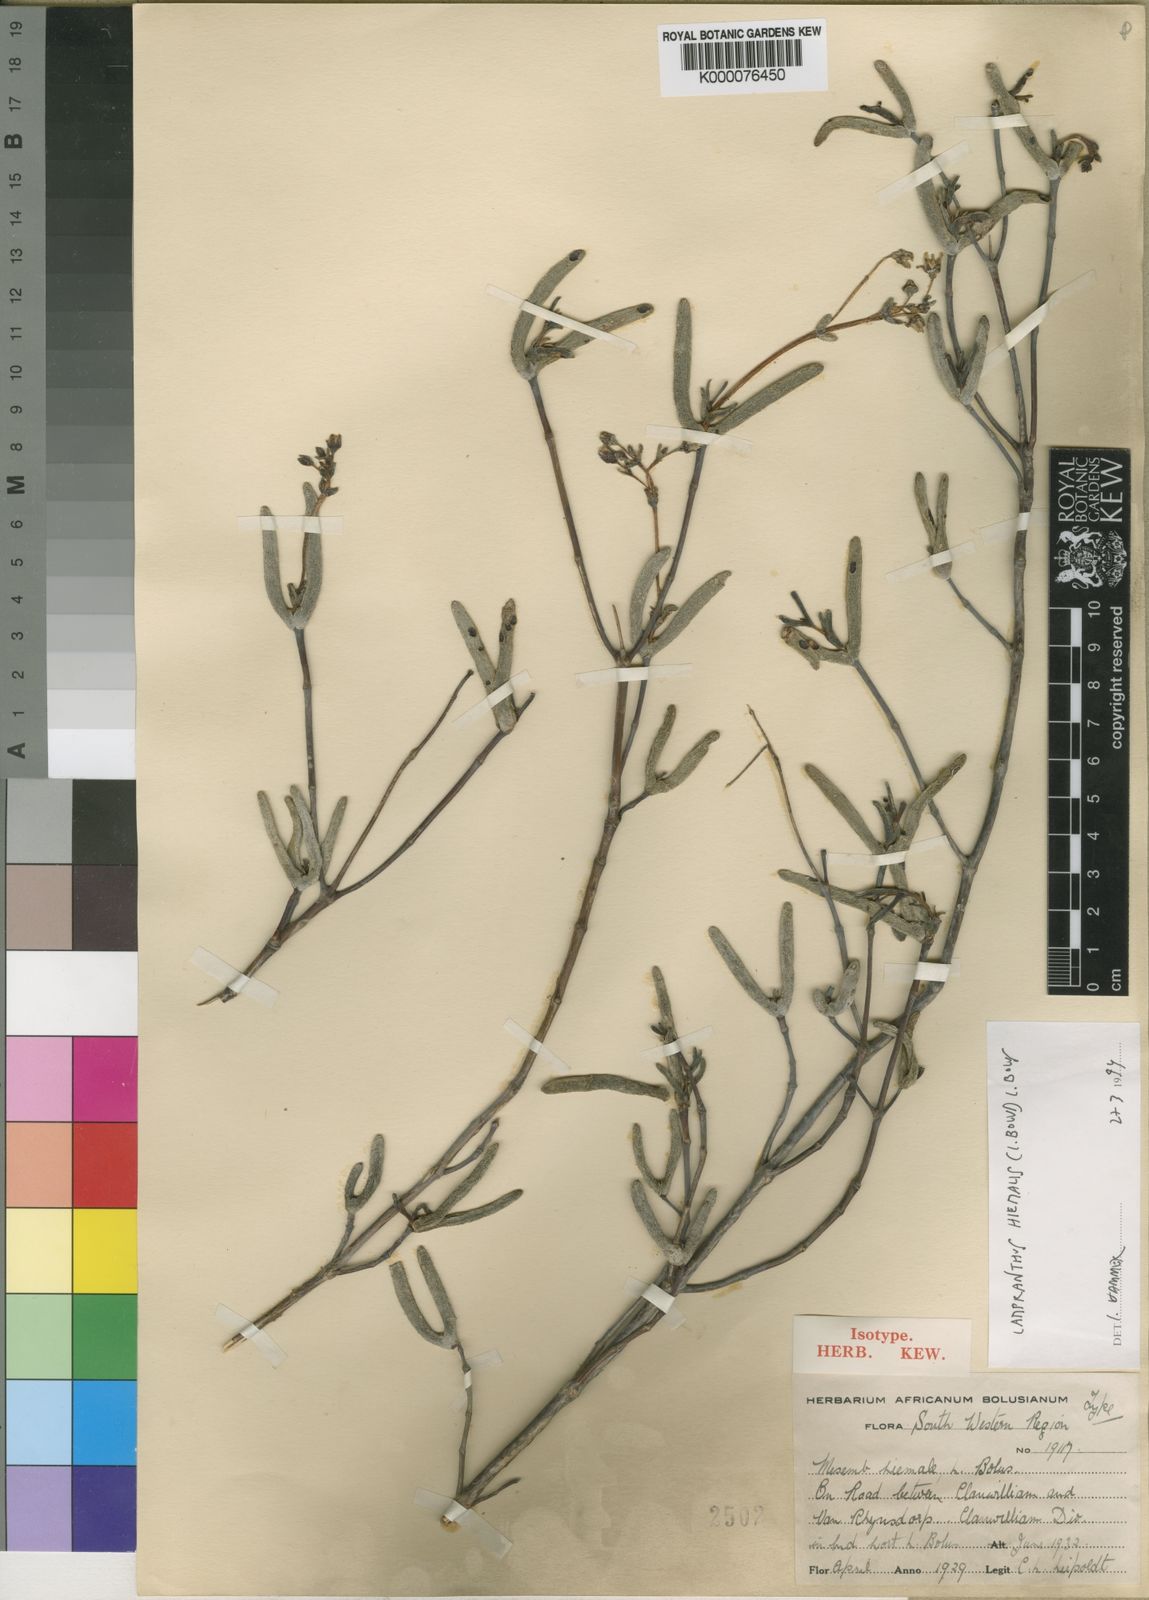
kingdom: Plantae
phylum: Tracheophyta
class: Magnoliopsida
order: Caryophyllales
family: Aizoaceae
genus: Lampranthus
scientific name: Lampranthus hiemalis
